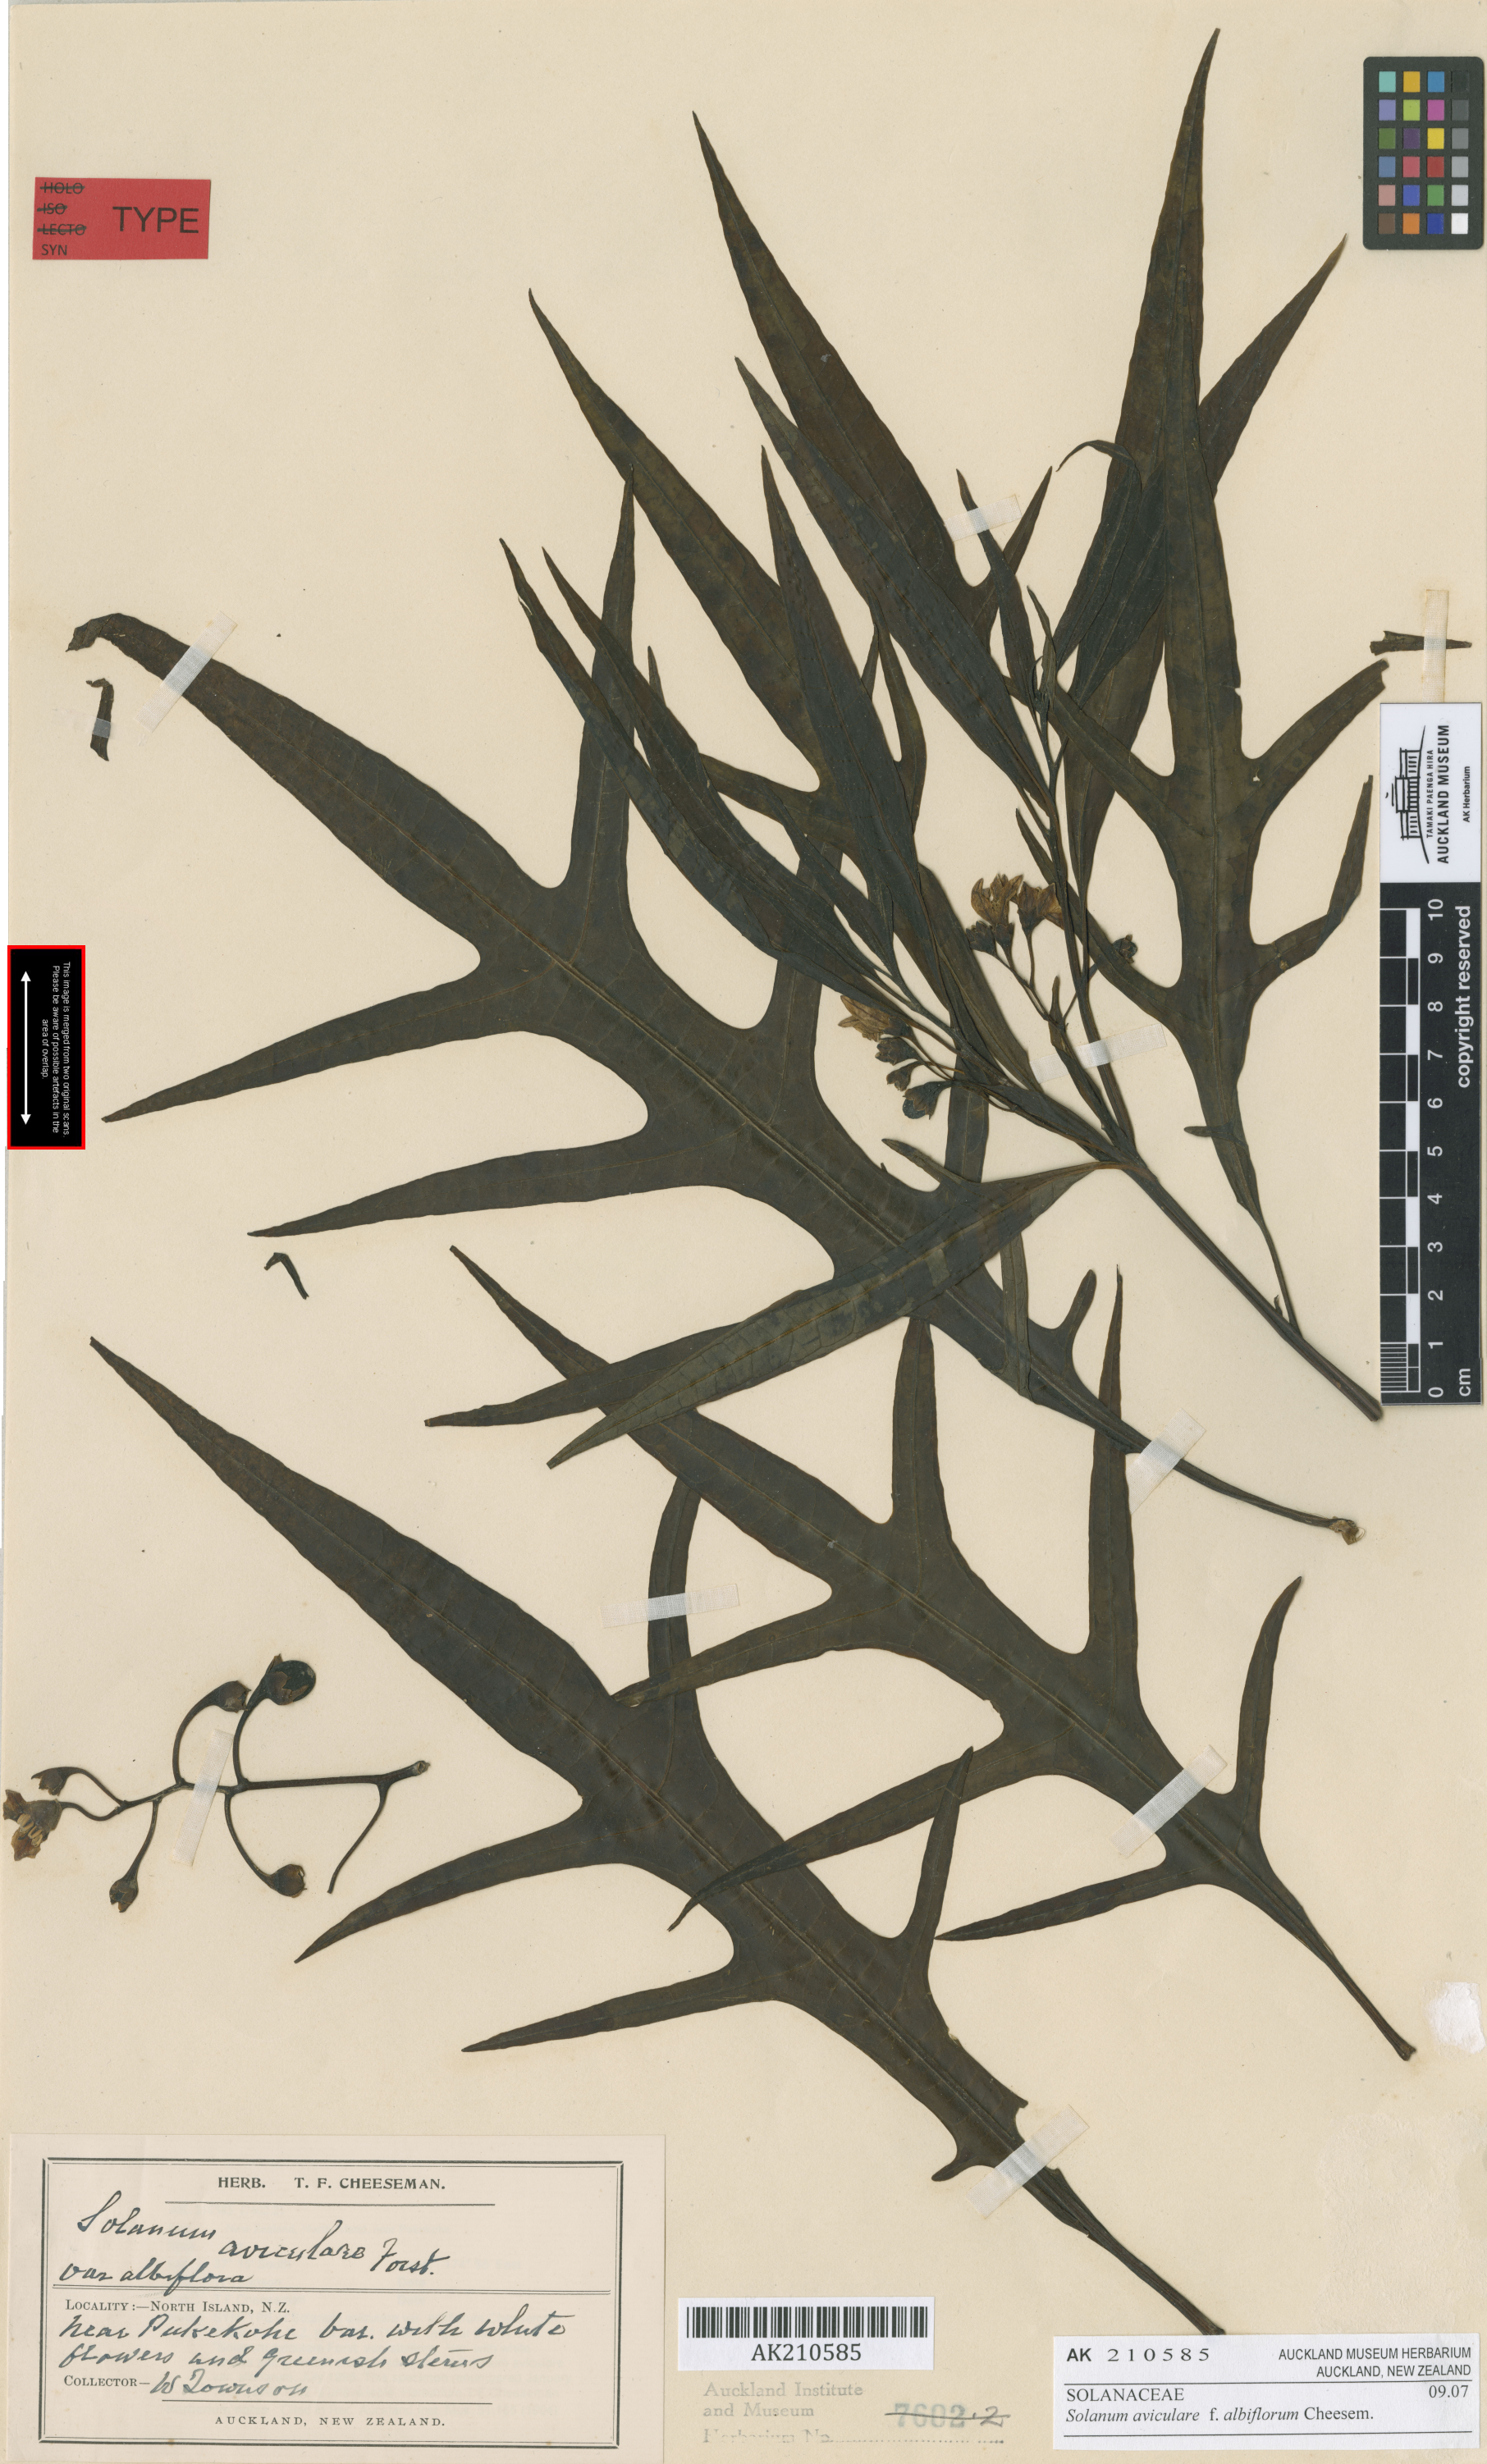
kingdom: Plantae
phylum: Tracheophyta
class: Magnoliopsida
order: Solanales
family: Solanaceae
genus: Solanum
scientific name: Solanum aviculare
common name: New zealand nightshade
